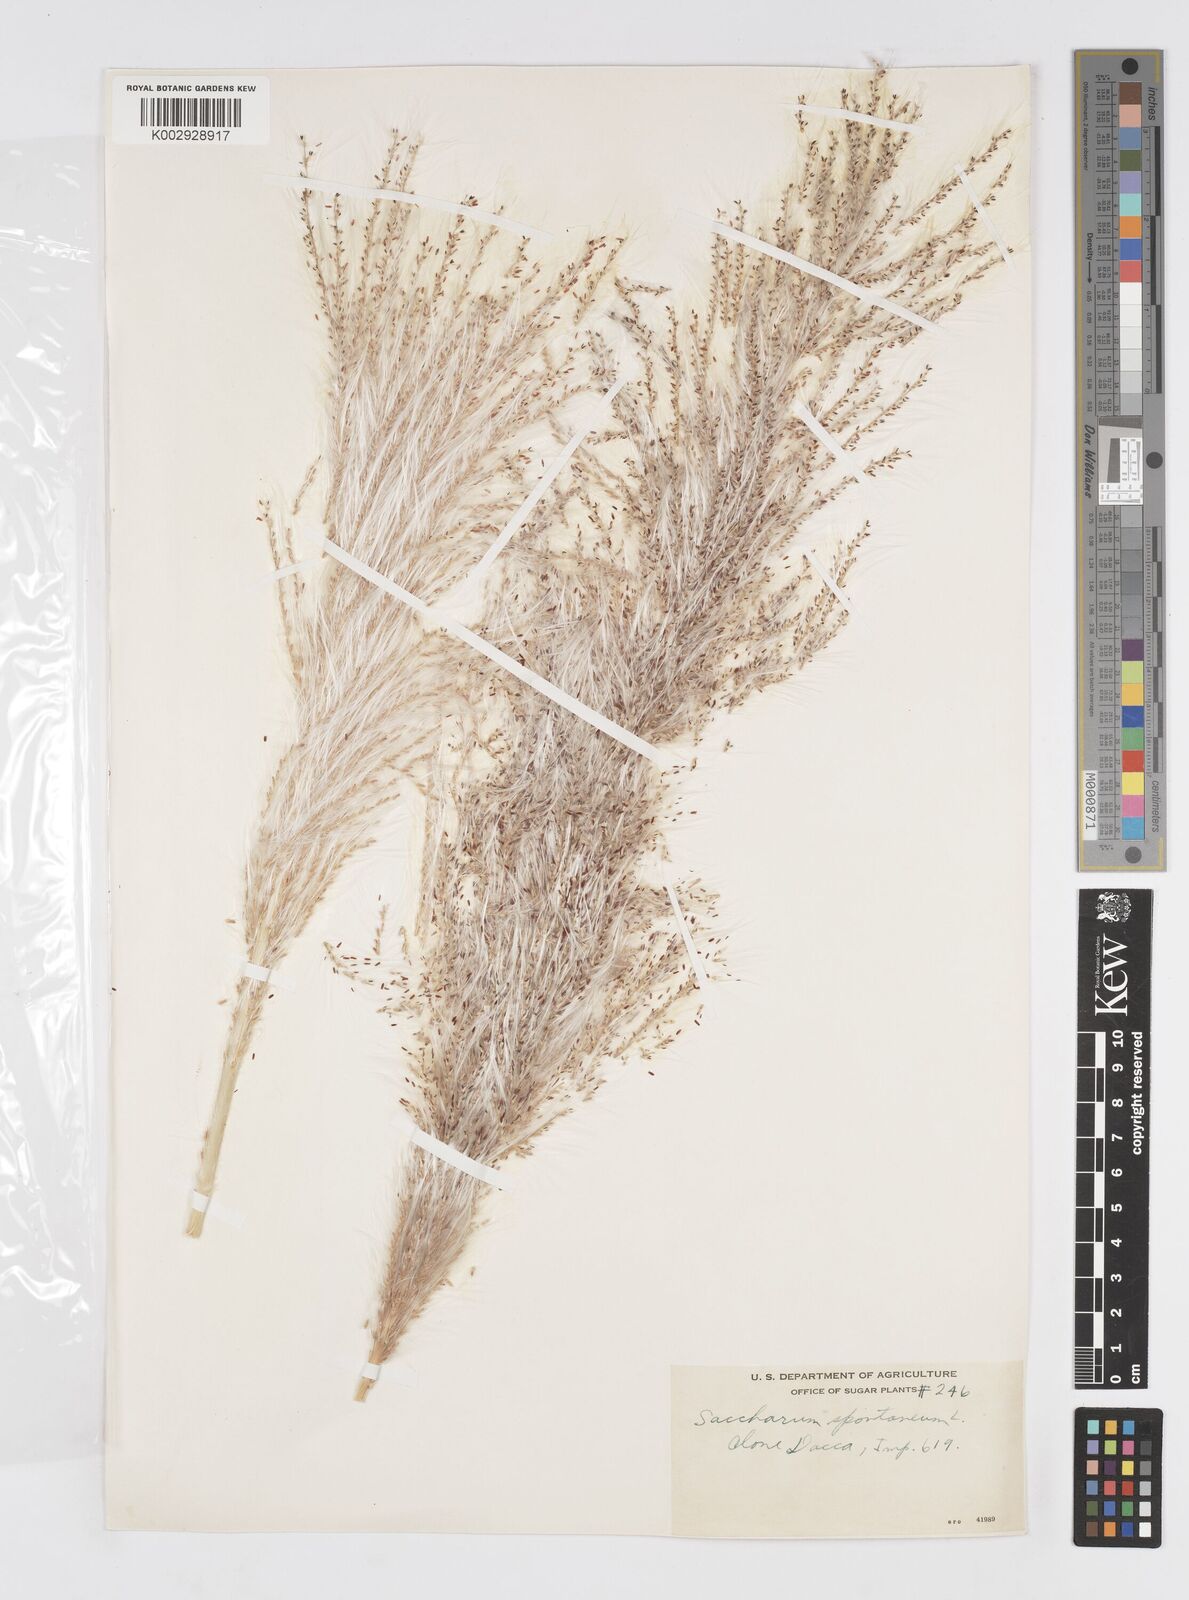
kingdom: Plantae
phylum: Tracheophyta
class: Liliopsida
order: Poales
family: Poaceae
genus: Saccharum
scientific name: Saccharum spontaneum
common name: Wild sugarcane
